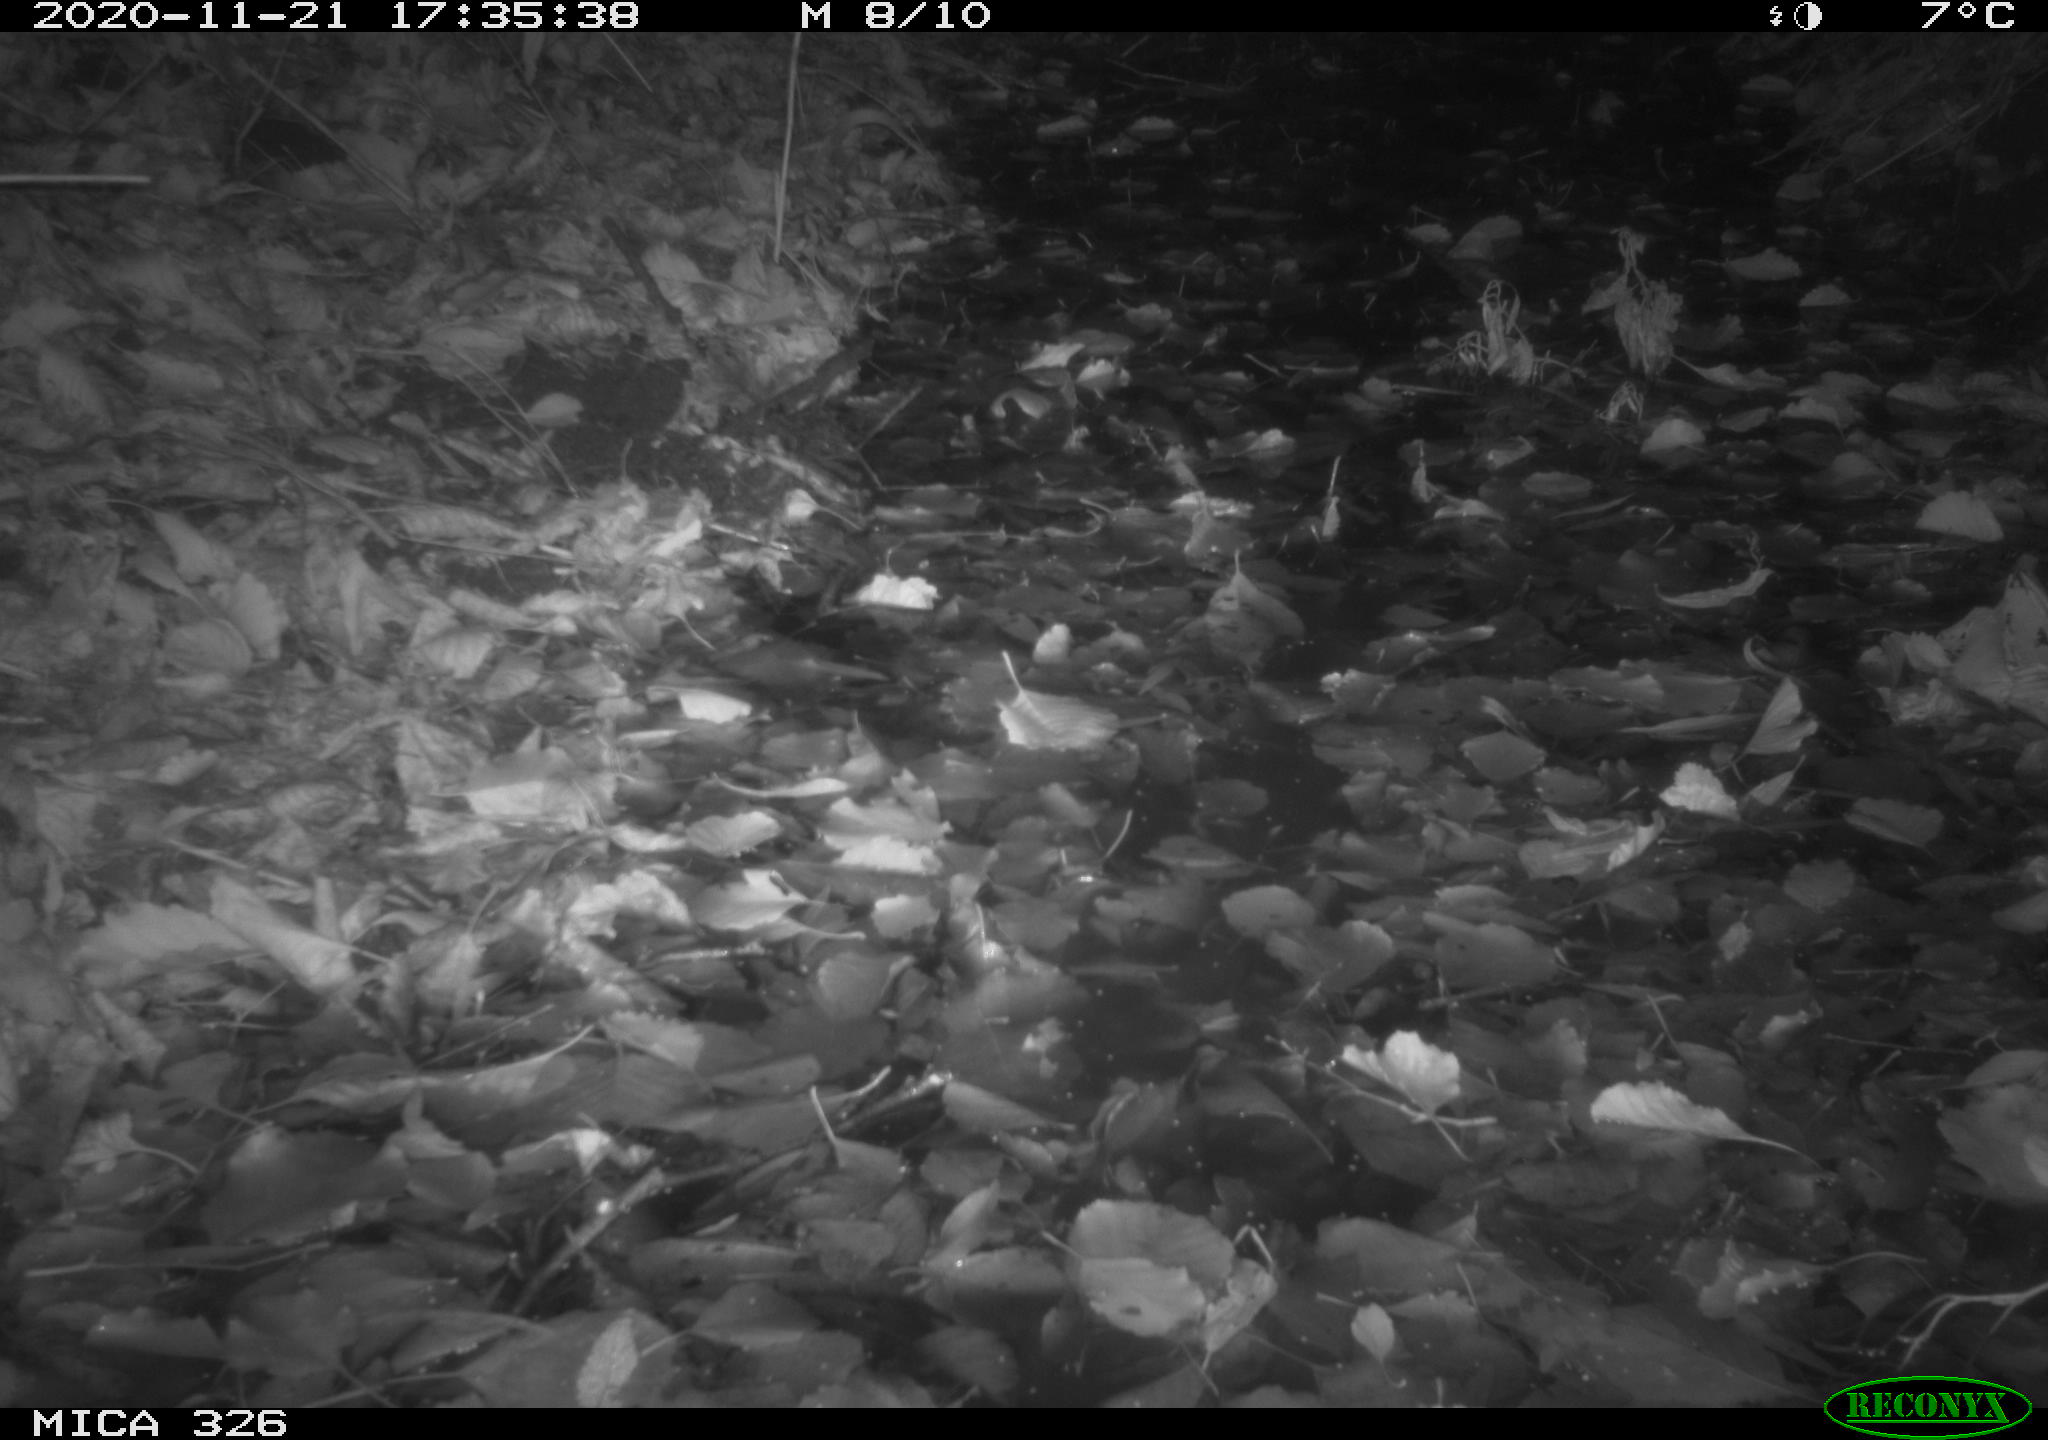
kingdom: Animalia
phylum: Chordata
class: Mammalia
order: Rodentia
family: Myocastoridae
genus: Myocastor
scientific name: Myocastor coypus
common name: Coypu
